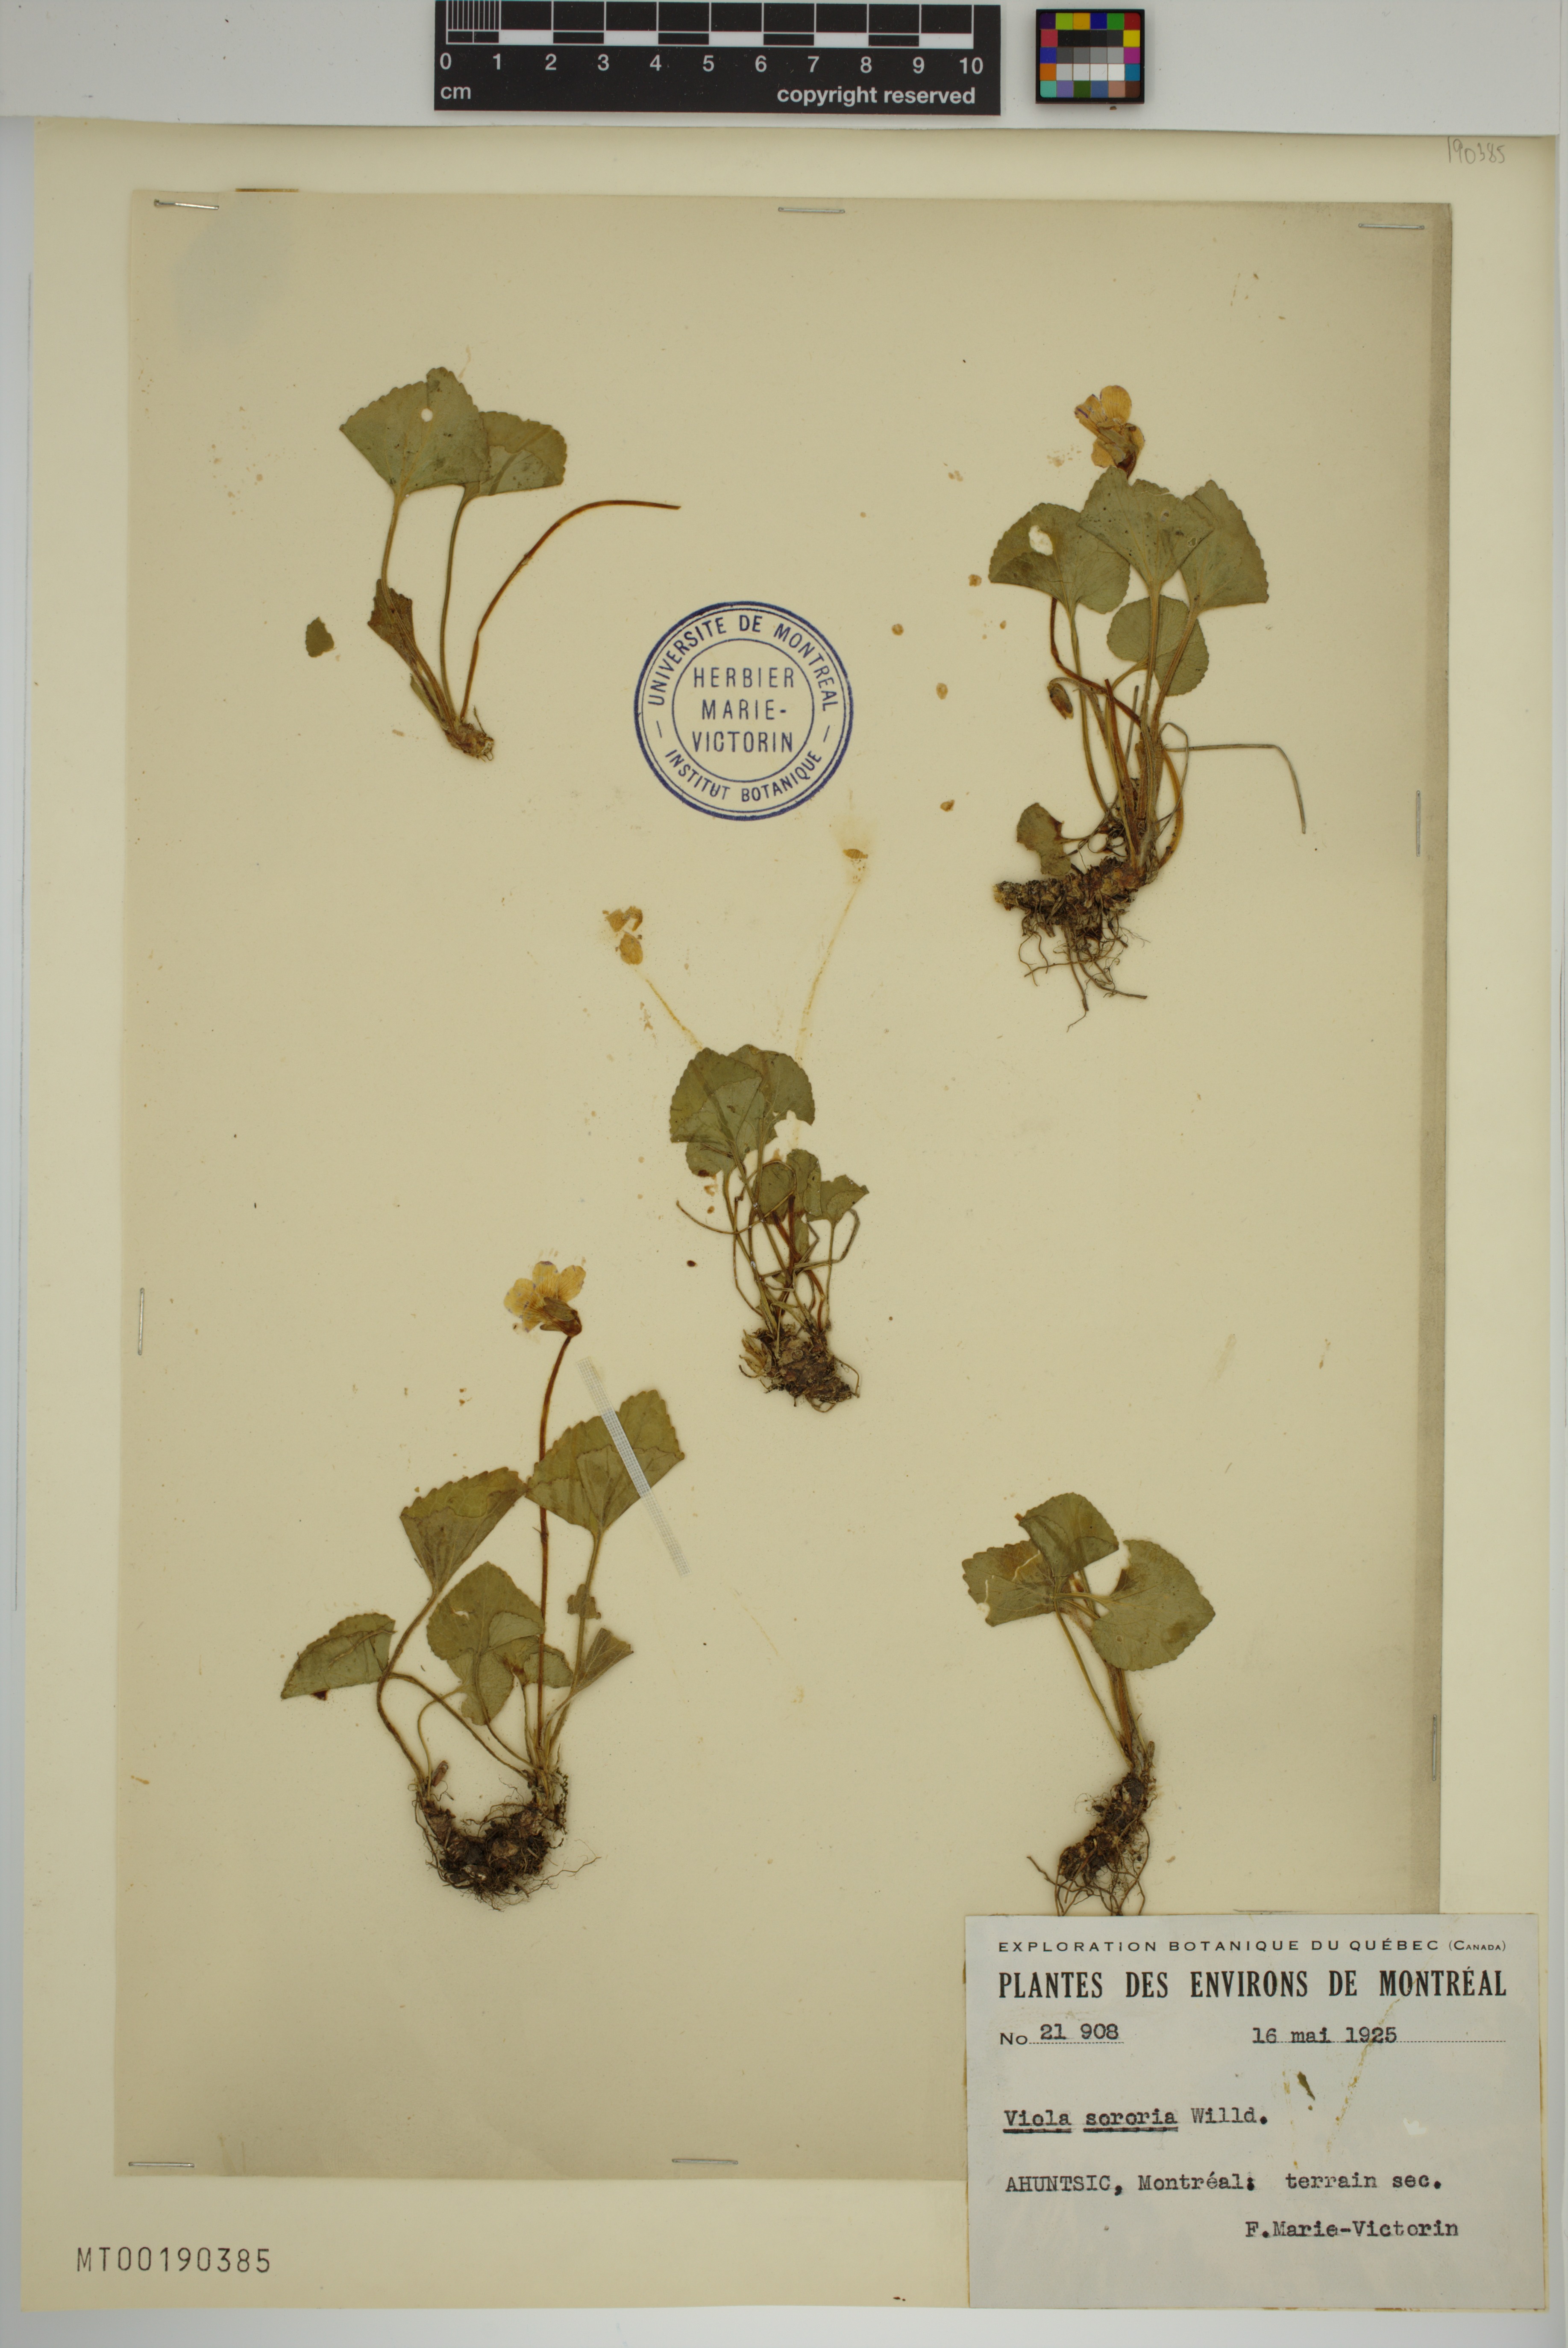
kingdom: Plantae
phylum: Tracheophyta
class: Magnoliopsida
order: Malpighiales
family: Violaceae
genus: Viola
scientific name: Viola sororia
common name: Dooryard violet
